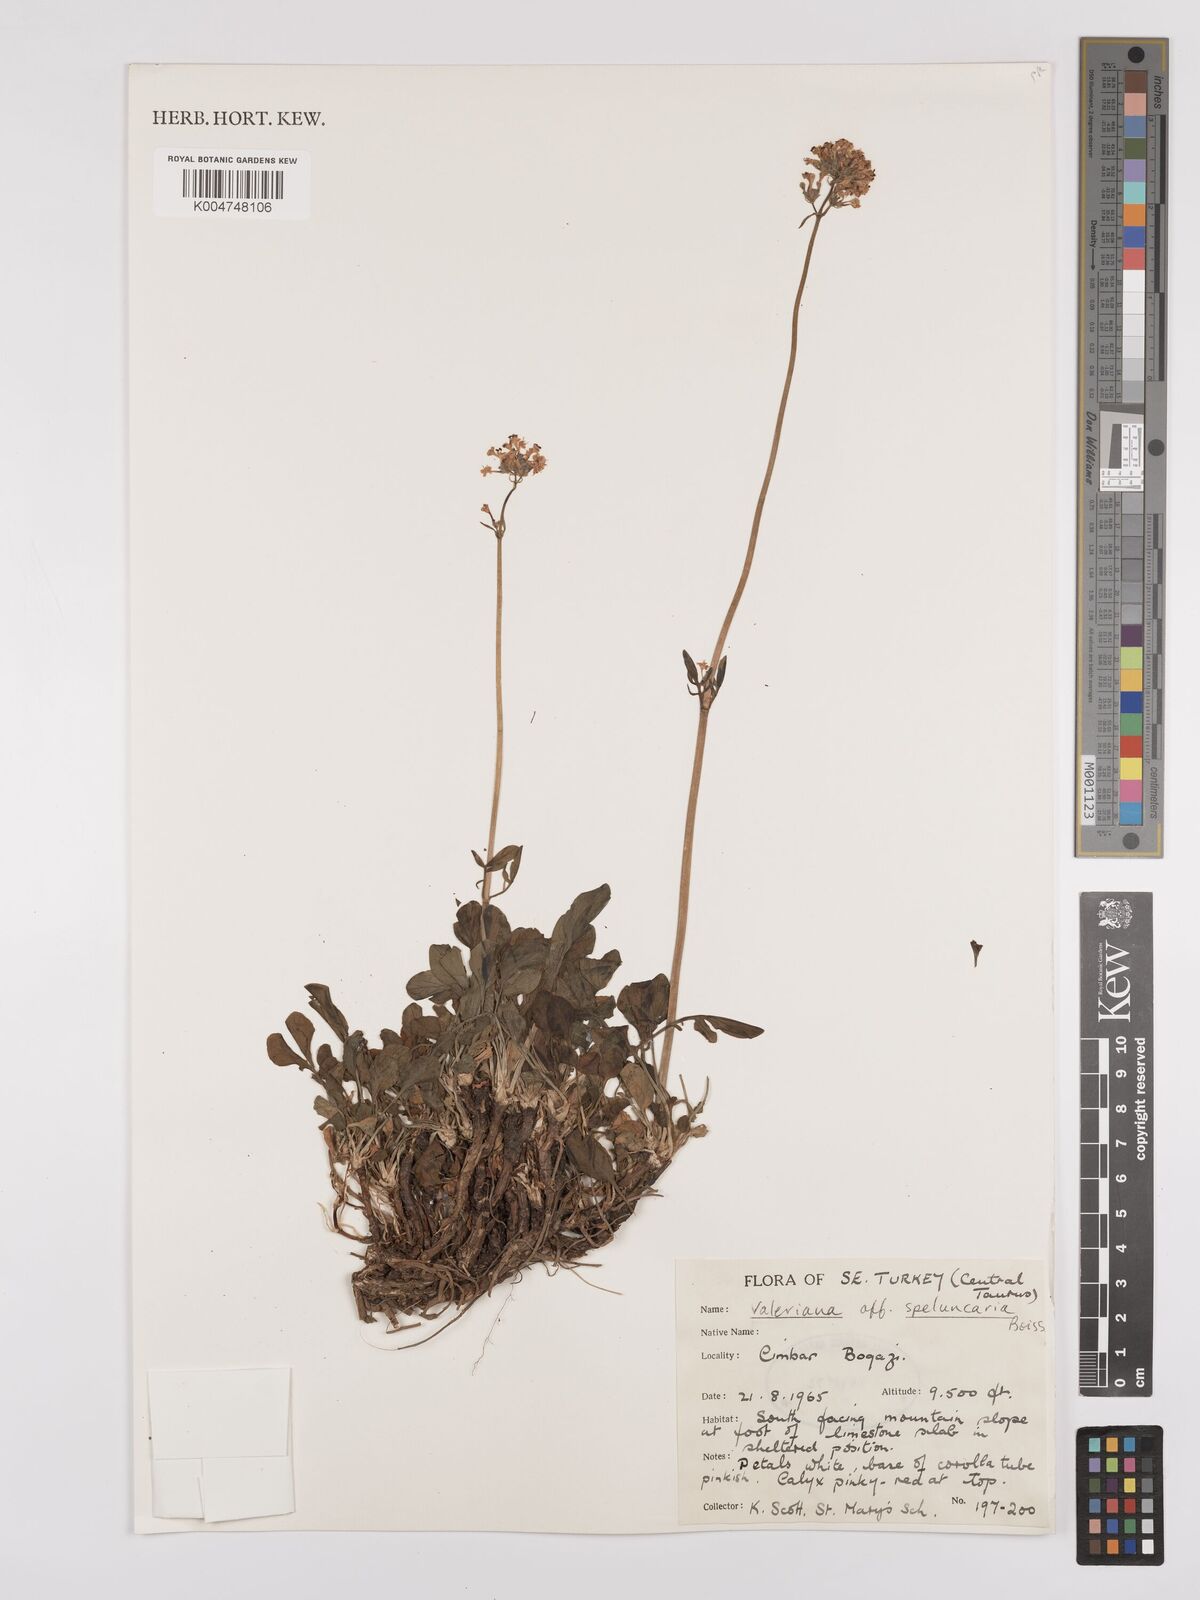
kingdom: Plantae
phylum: Tracheophyta
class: Magnoliopsida
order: Dipsacales
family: Caprifoliaceae
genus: Valeriana
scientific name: Valeriana petrophila
